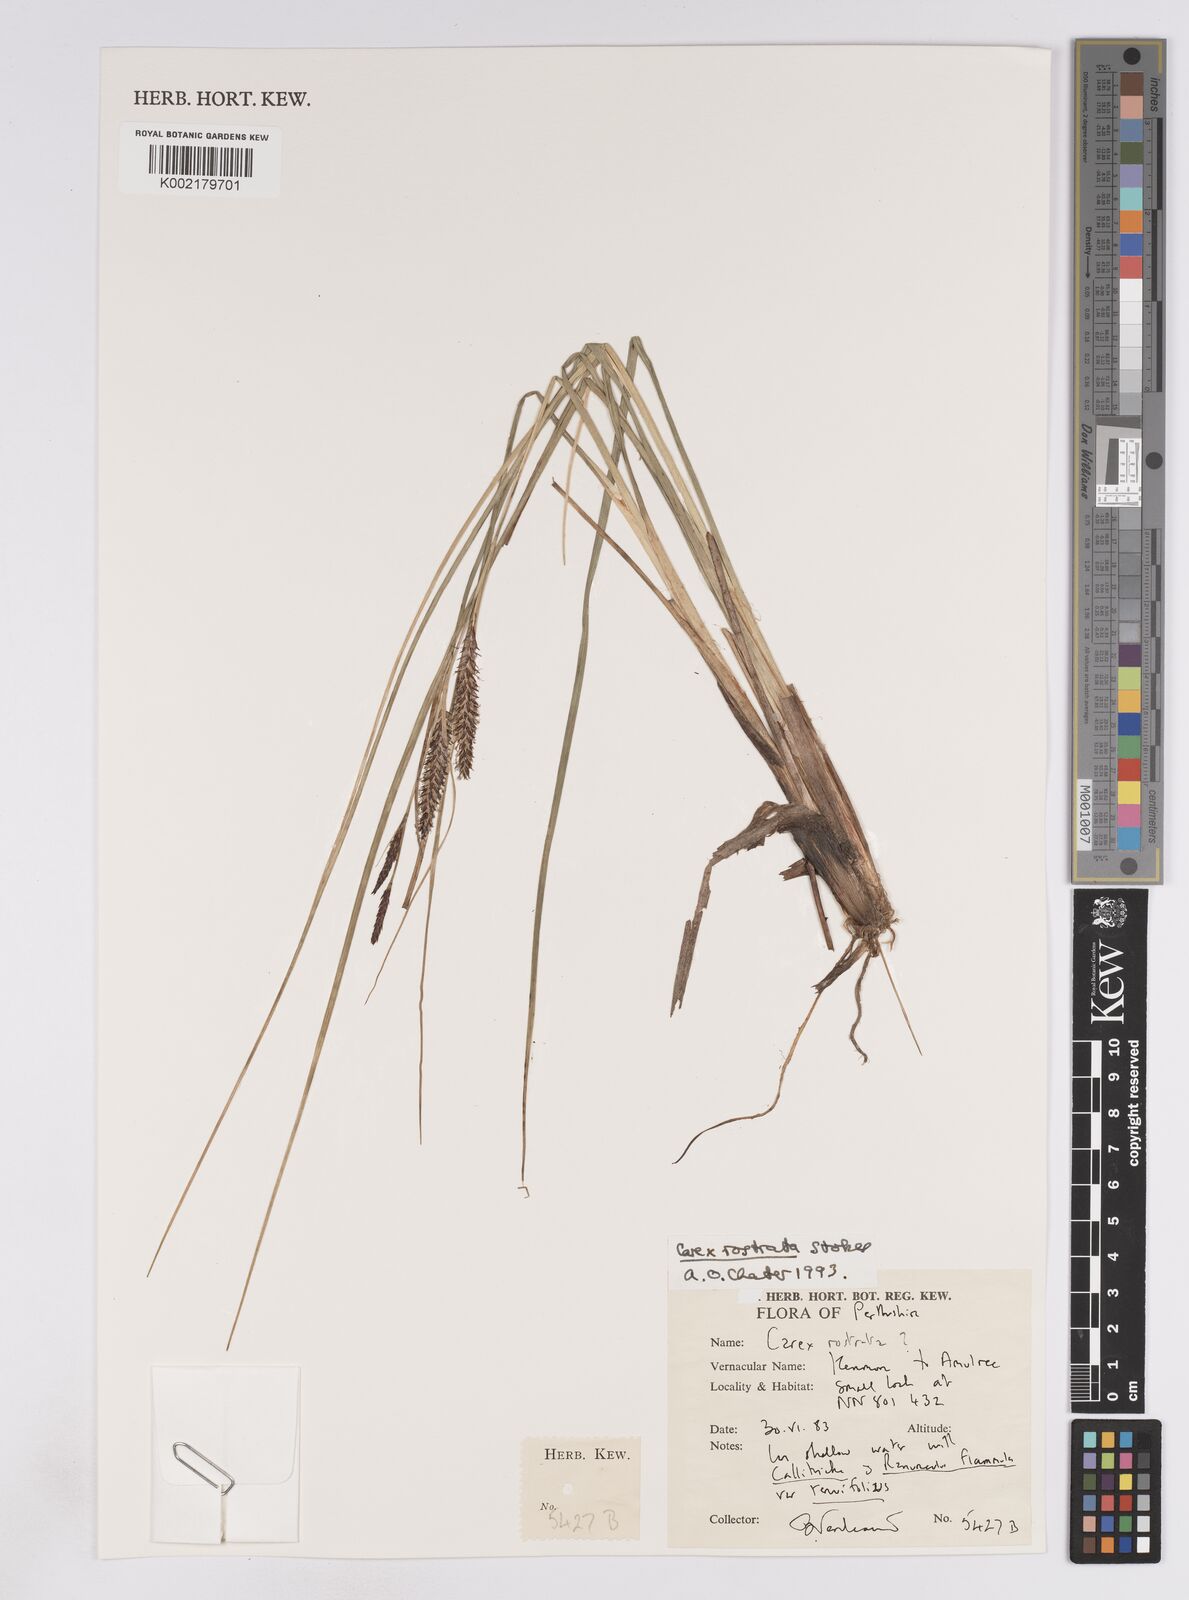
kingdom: Plantae
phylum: Tracheophyta
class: Liliopsida
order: Poales
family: Cyperaceae
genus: Carex
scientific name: Carex rostrata
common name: Bottle sedge
